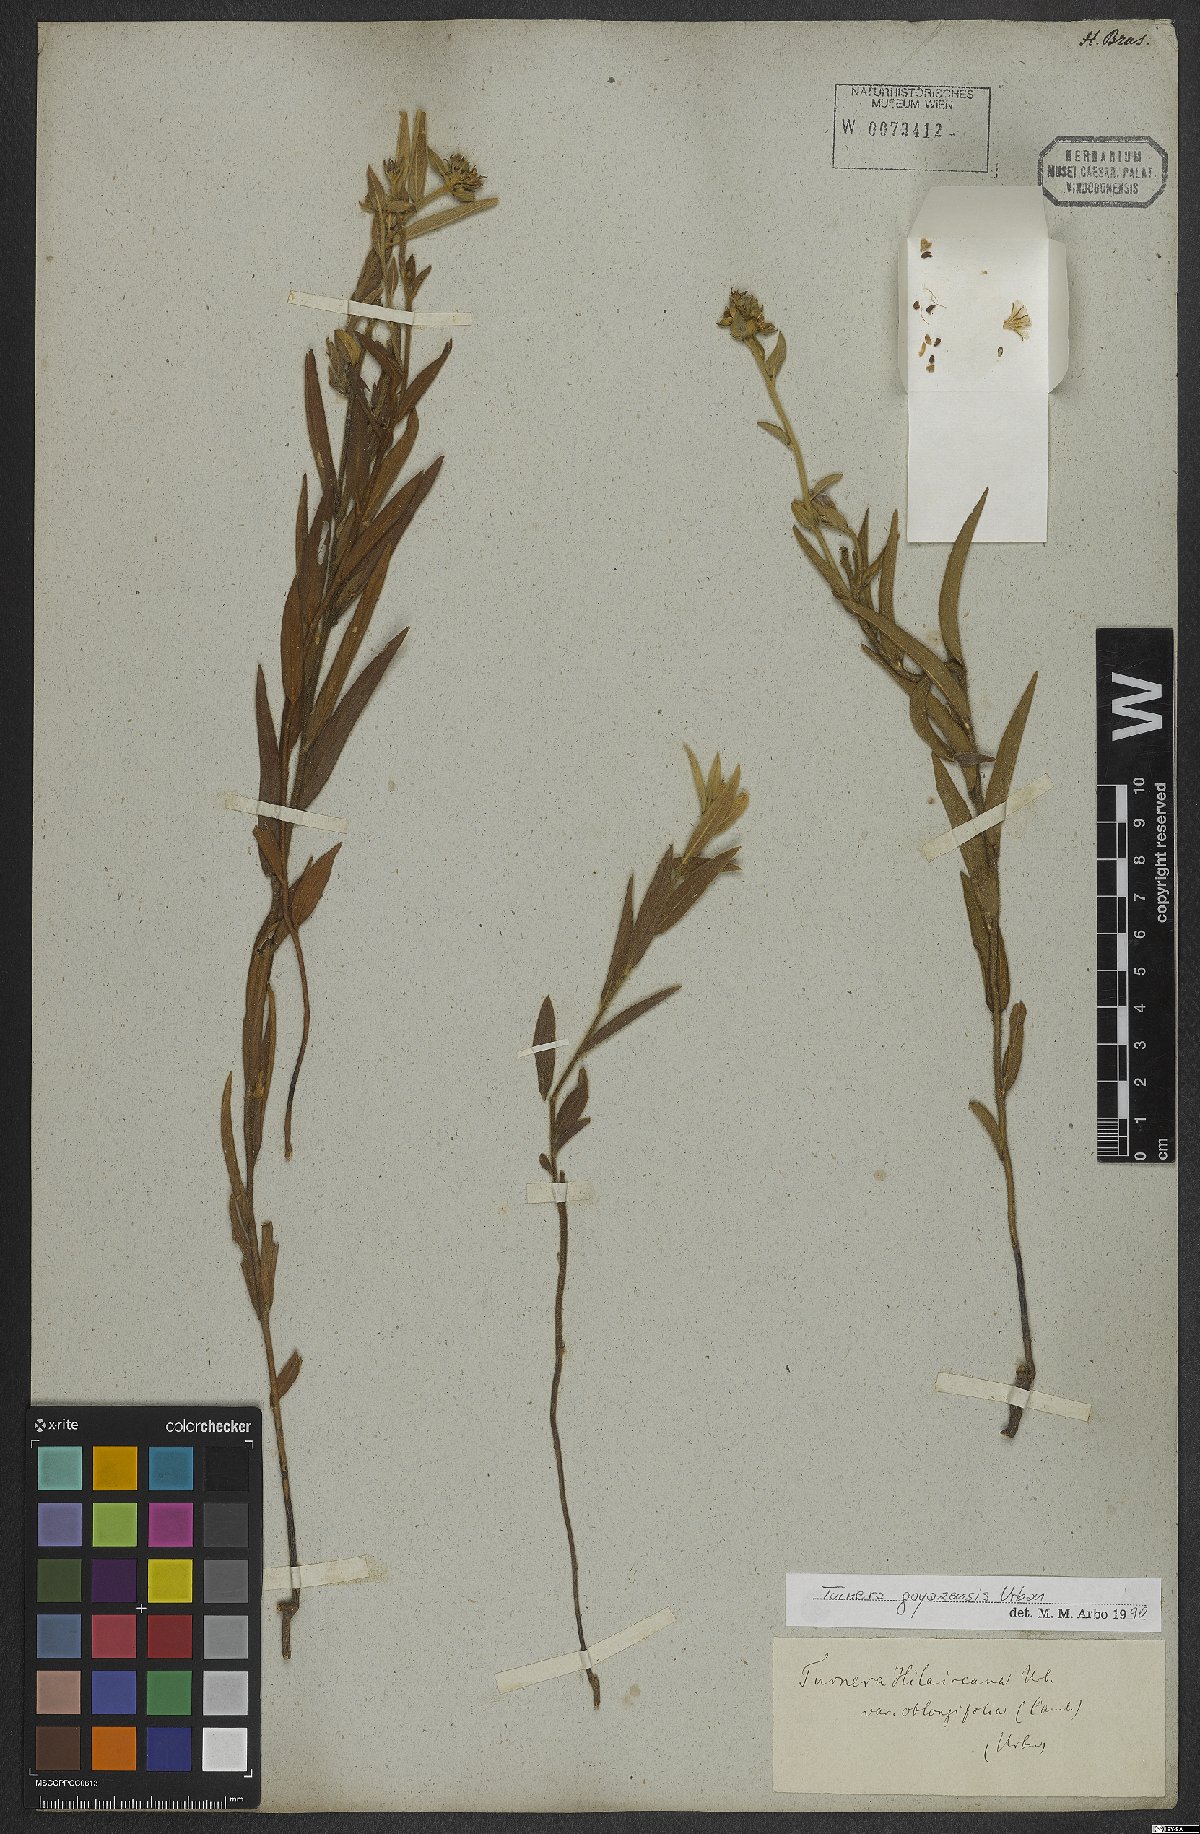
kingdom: Plantae
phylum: Tracheophyta
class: Magnoliopsida
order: Malpighiales
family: Turneraceae
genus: Turnera
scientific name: Turnera oblongifolia
